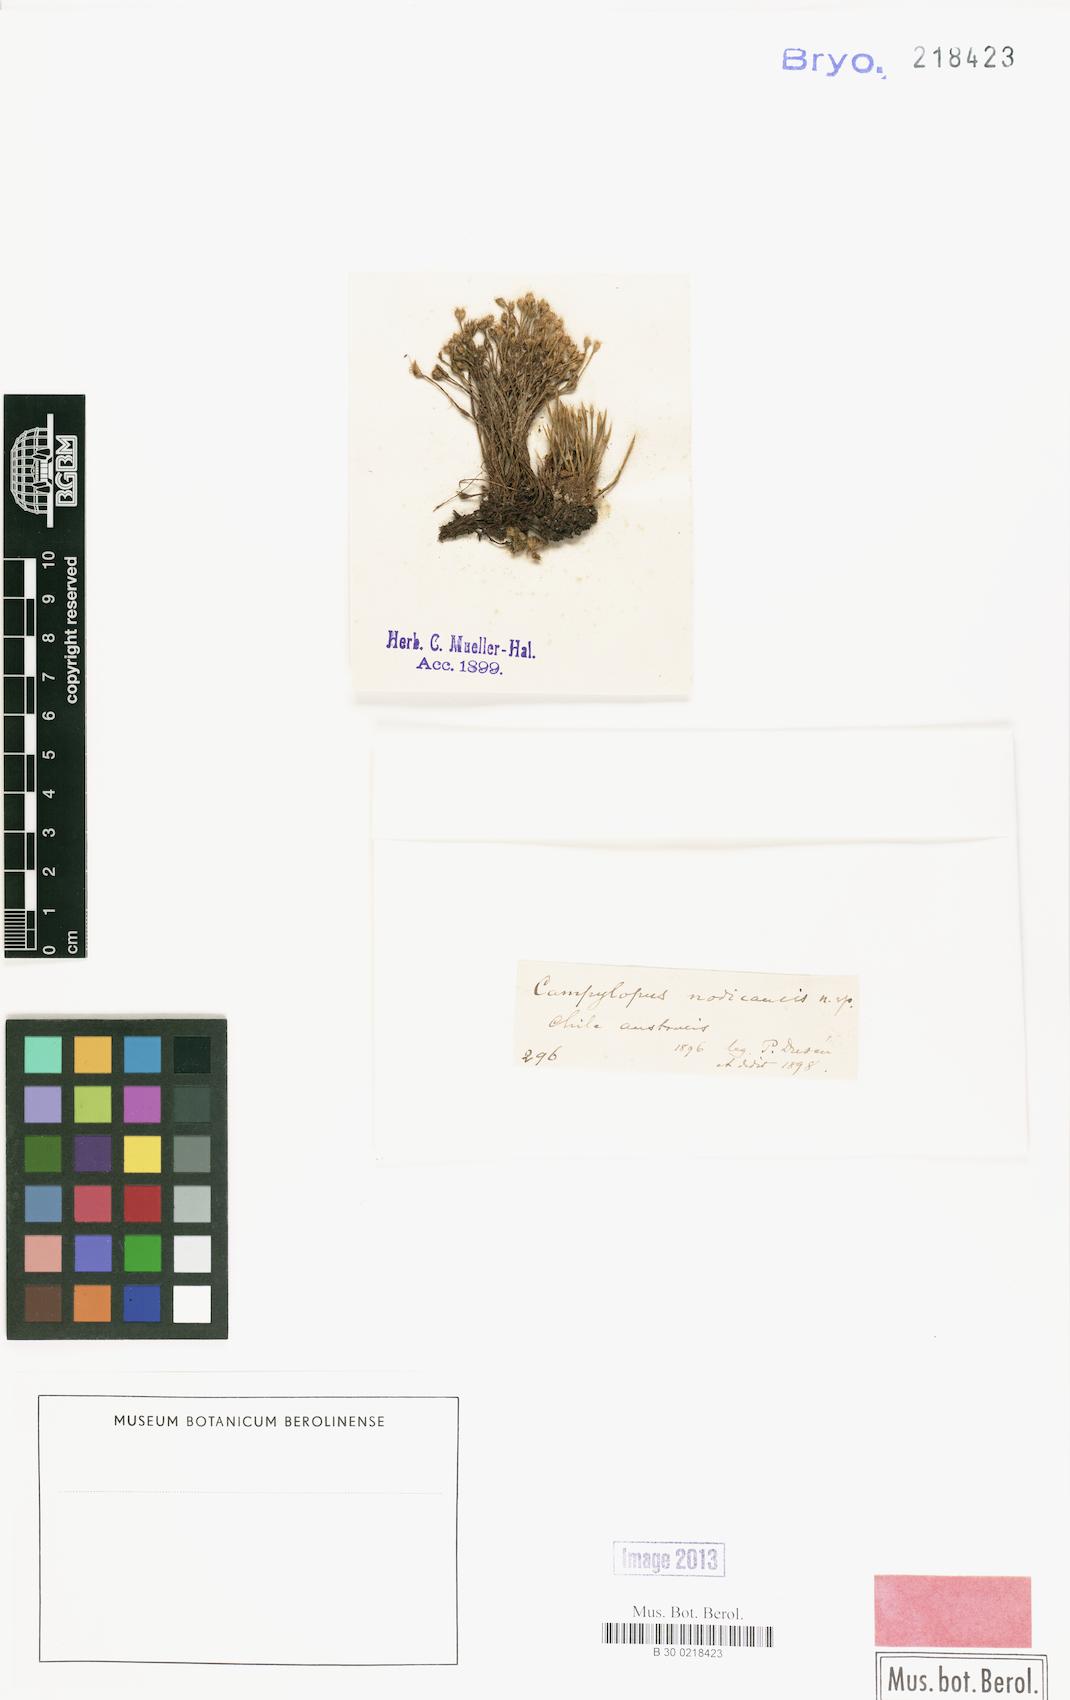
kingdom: Plantae
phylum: Bryophyta
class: Bryopsida
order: Dicranales
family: Leucobryaceae
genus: Campylopus
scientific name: Campylopus umbellatus
